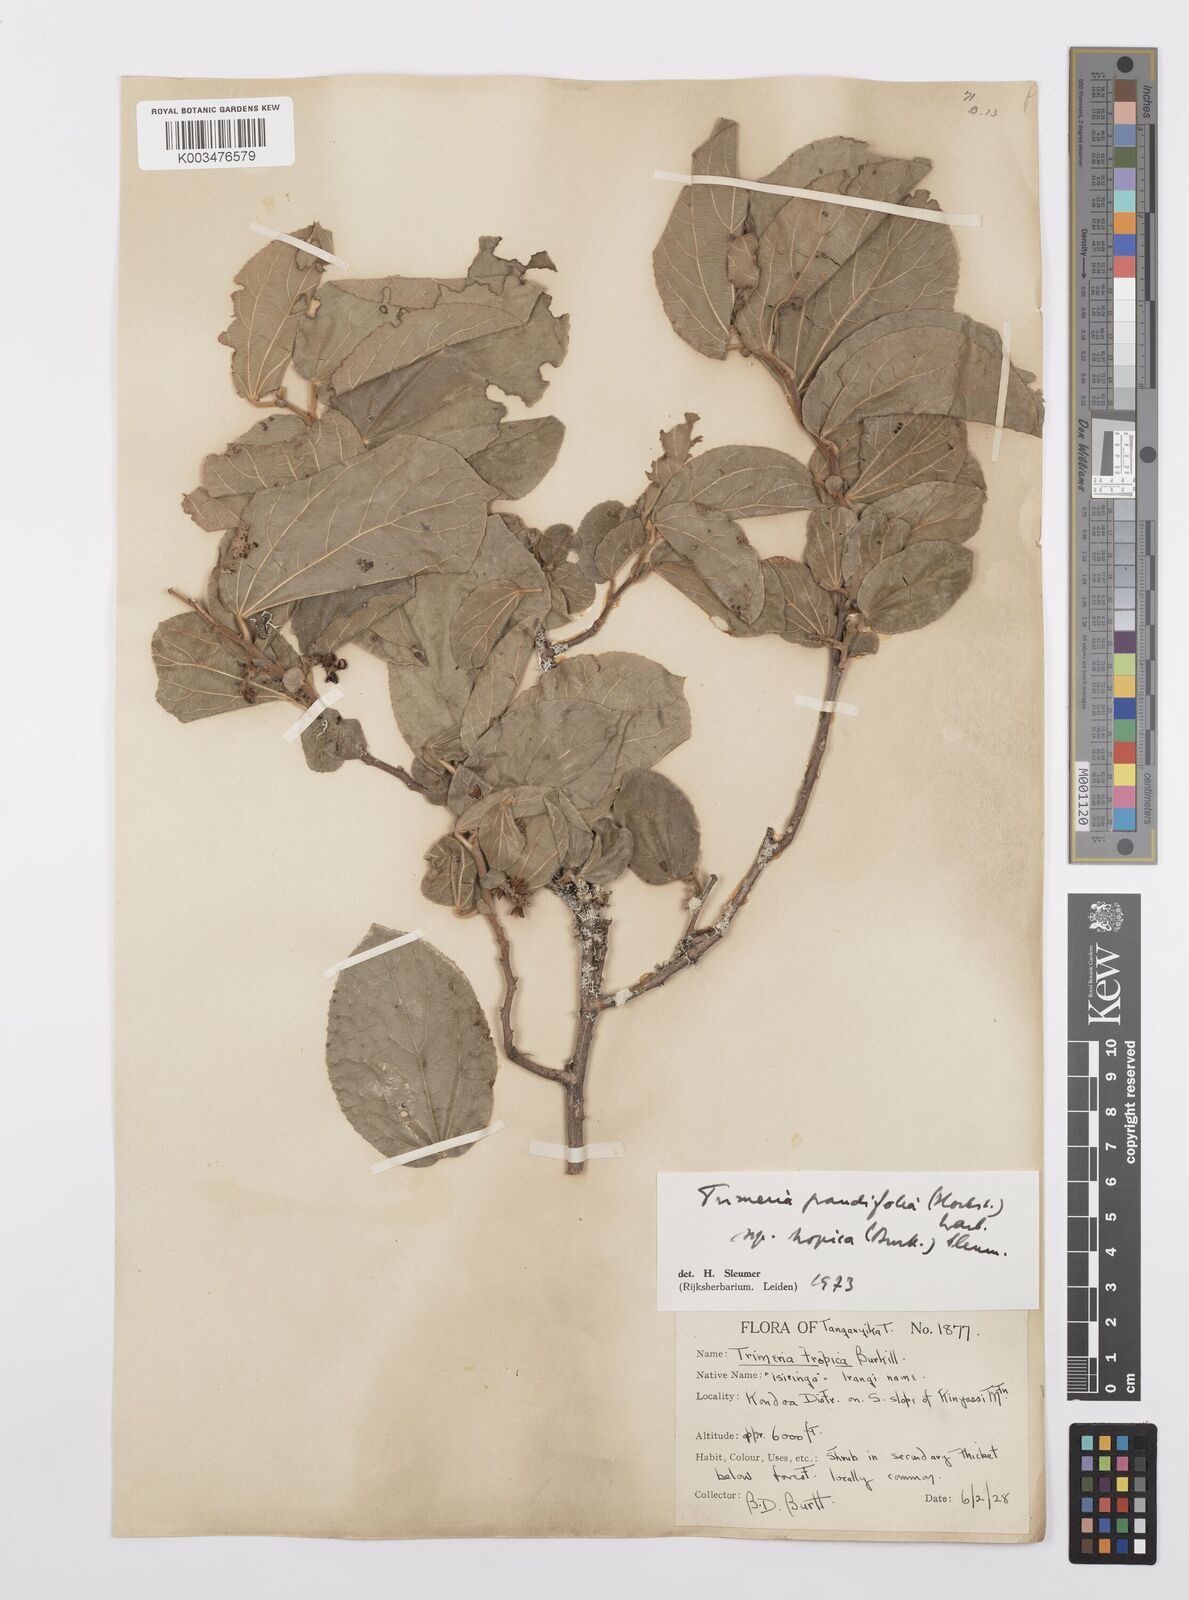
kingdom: Plantae
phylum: Tracheophyta
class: Magnoliopsida
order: Malpighiales
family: Salicaceae
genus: Trimeria
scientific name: Trimeria grandifolia
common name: Wild mulberry
